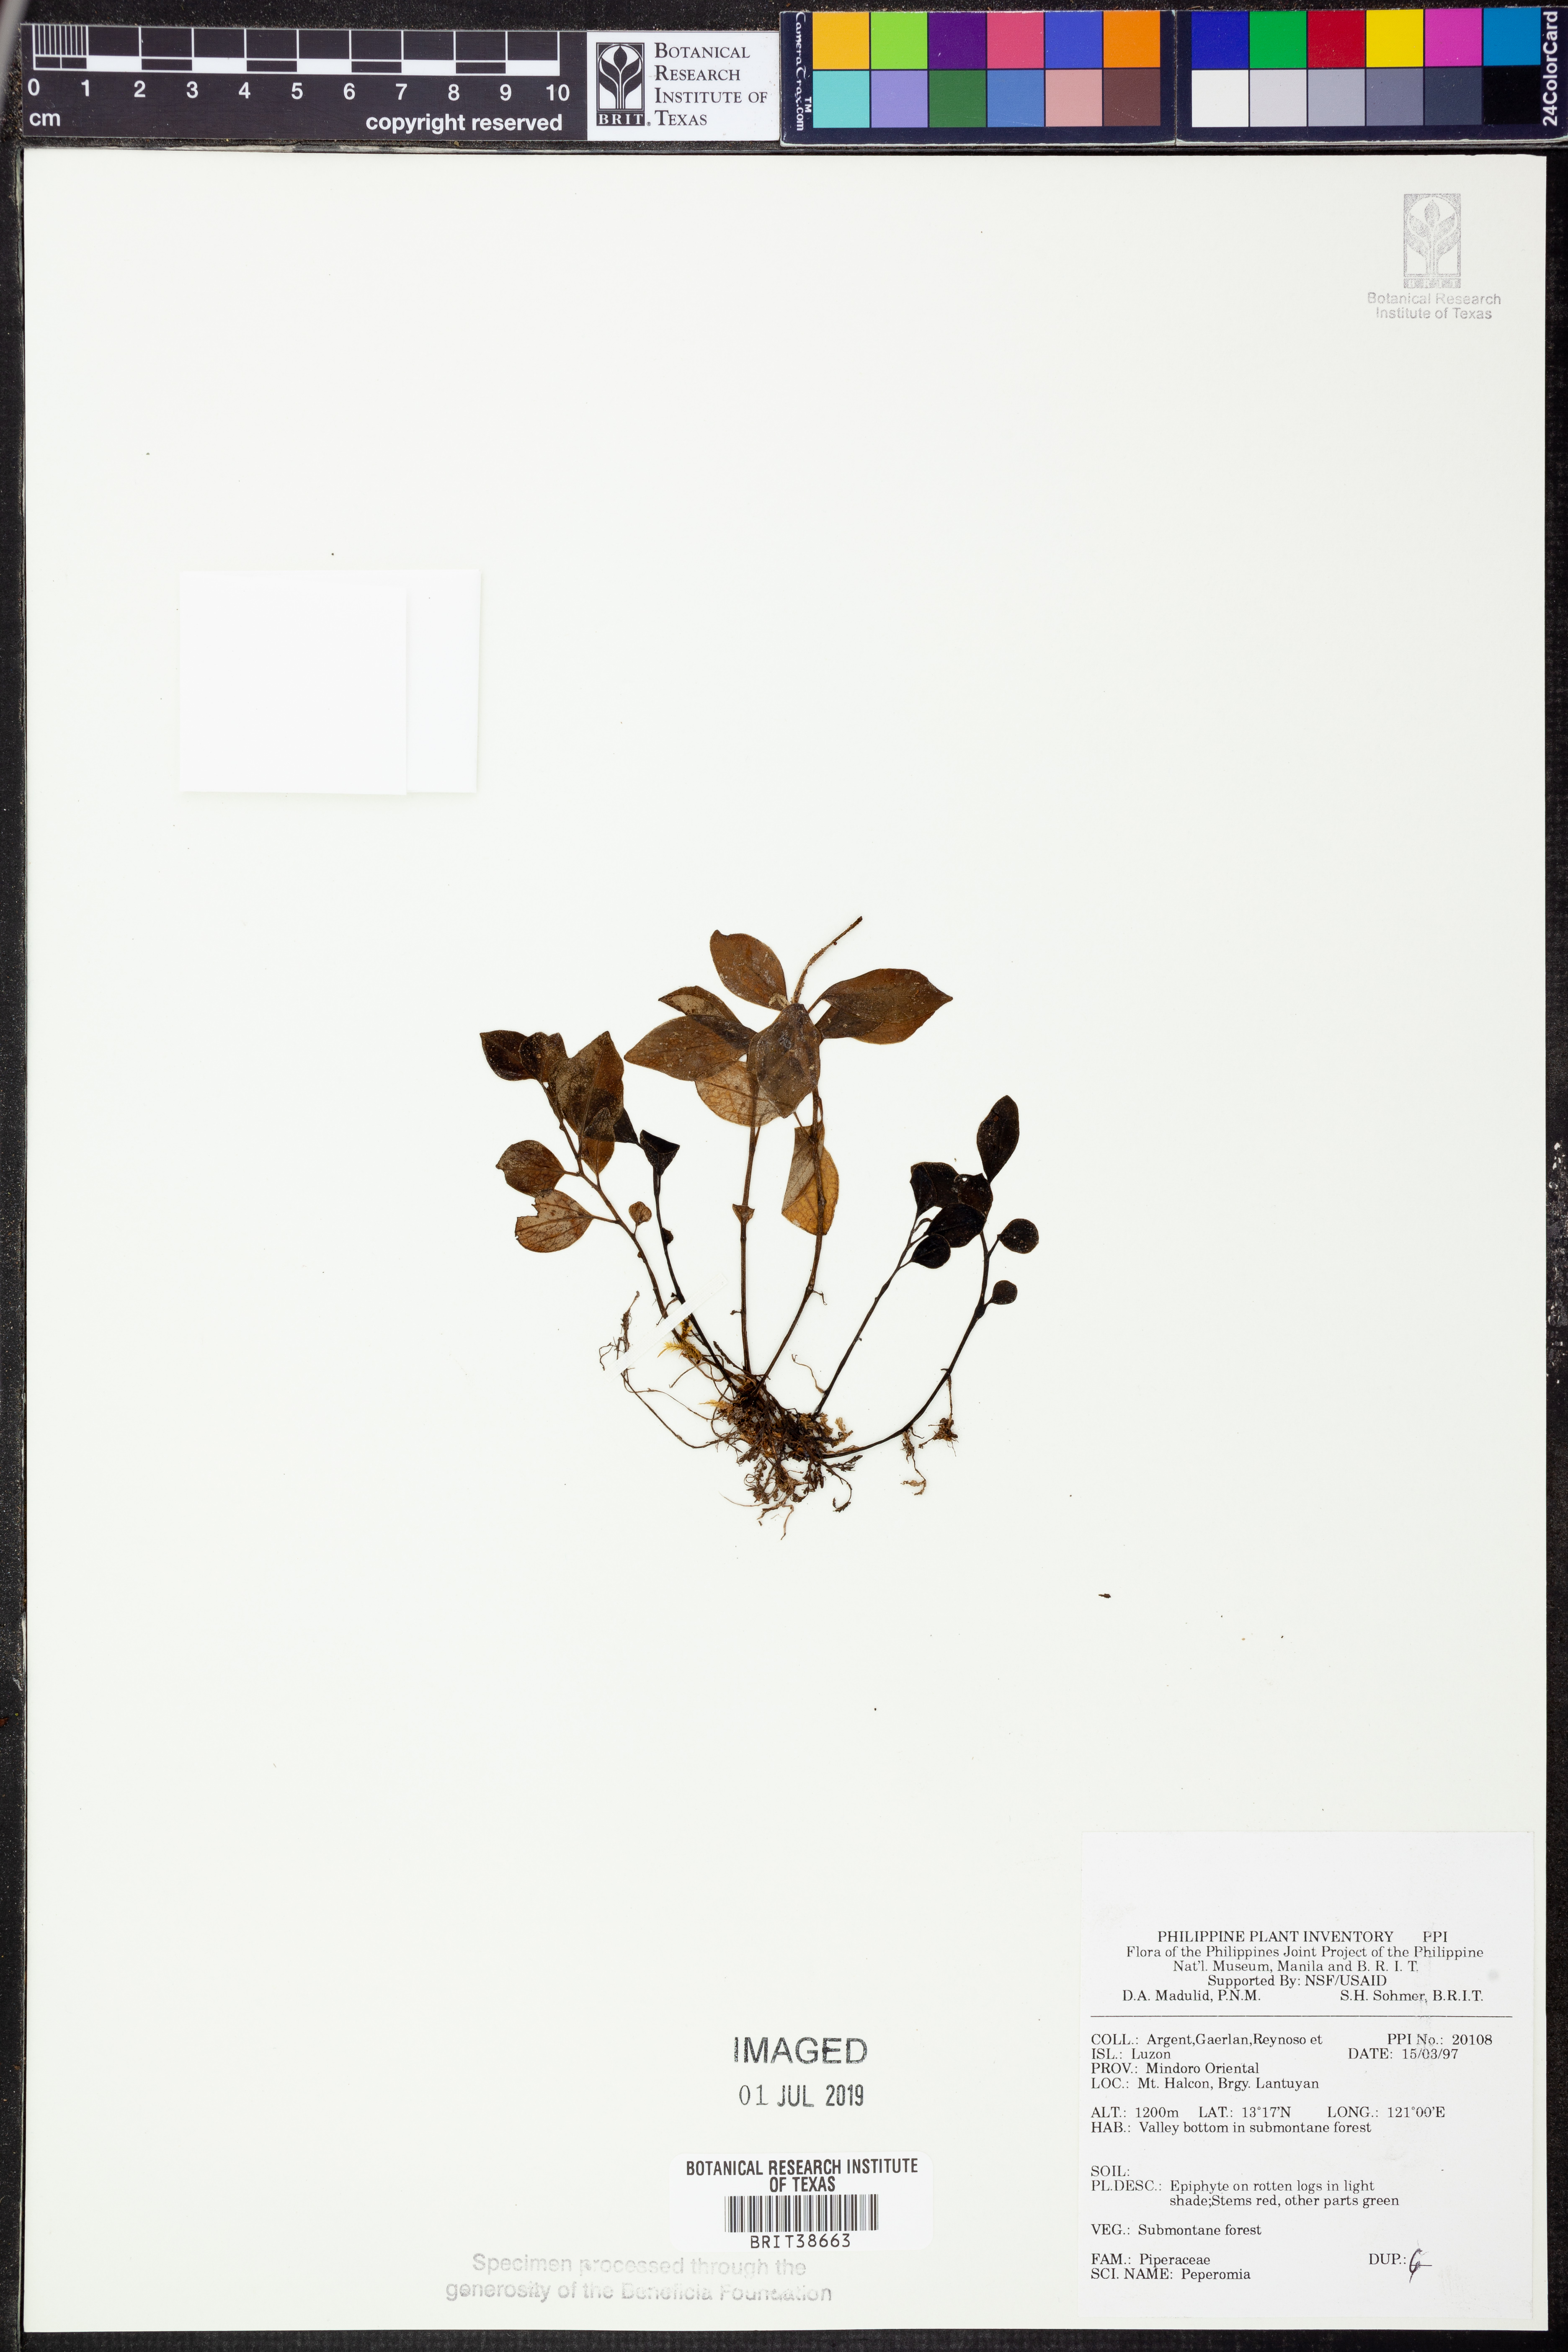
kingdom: Plantae
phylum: Tracheophyta
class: Magnoliopsida
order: Piperales
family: Piperaceae
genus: Peperomia
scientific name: Peperomia
